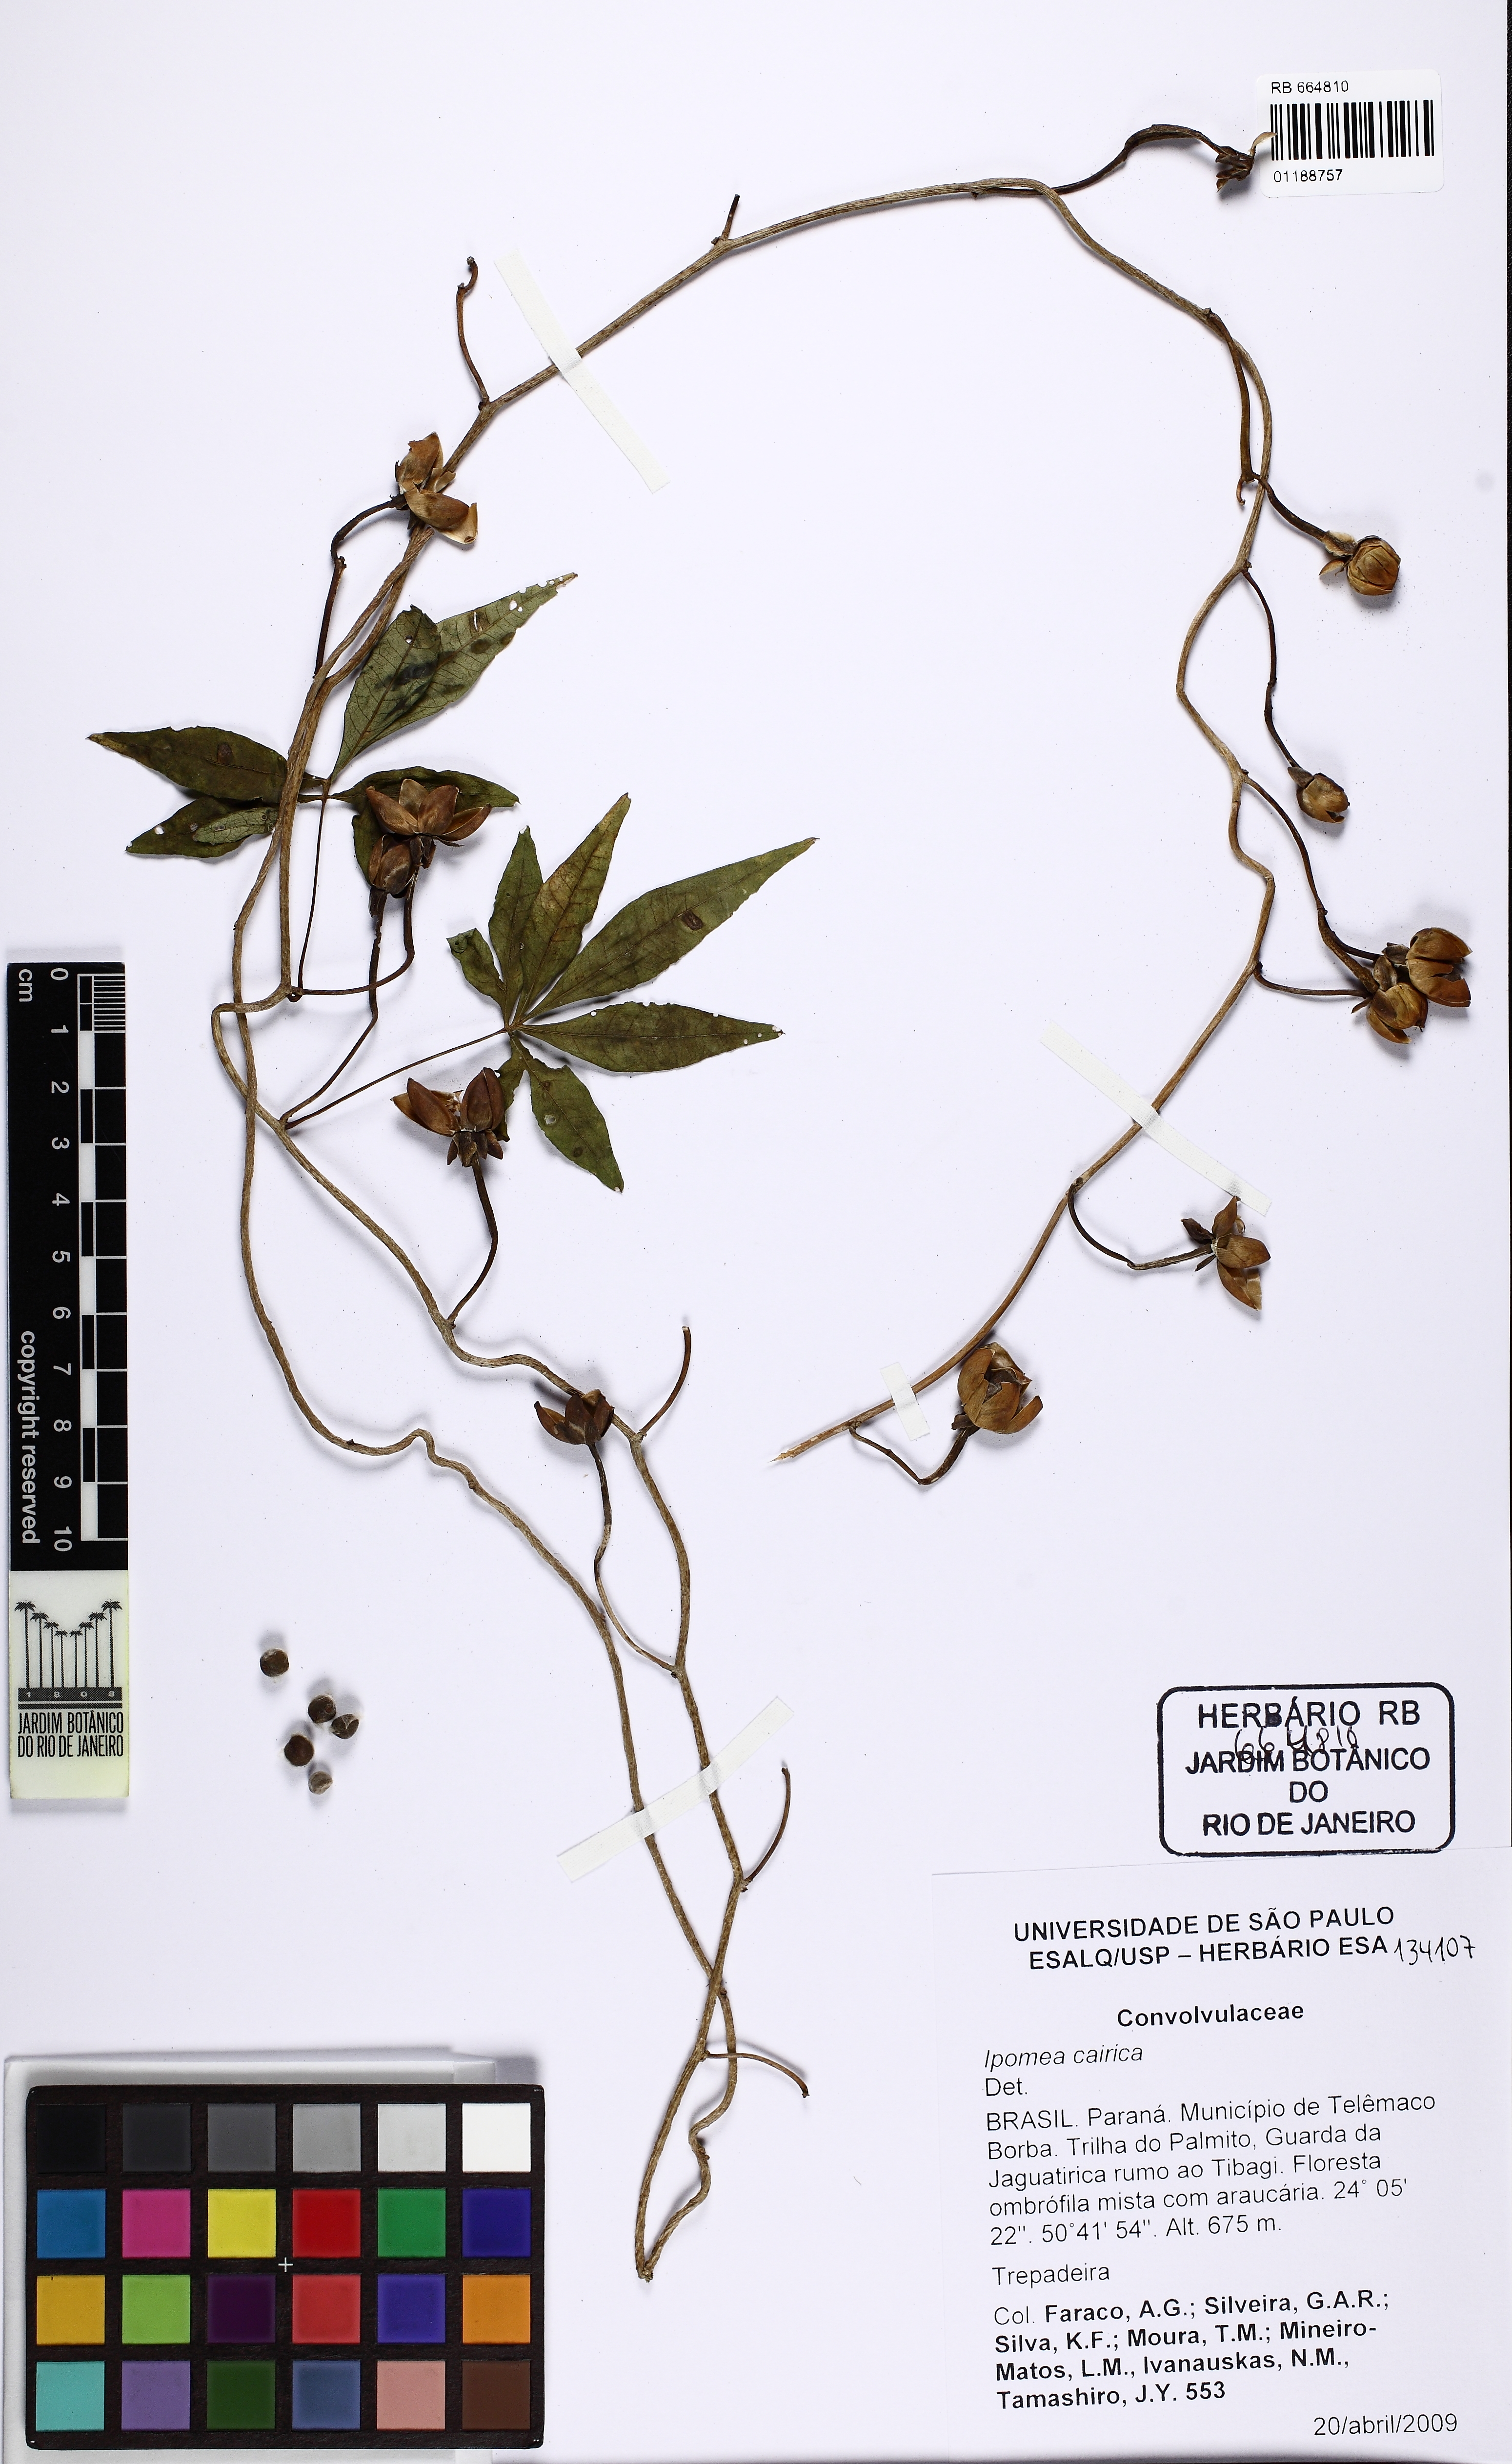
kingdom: Plantae
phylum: Tracheophyta
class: Magnoliopsida
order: Solanales
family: Convolvulaceae
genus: Ipomoea
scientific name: Ipomoea cairica
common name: Mile a minute vine
